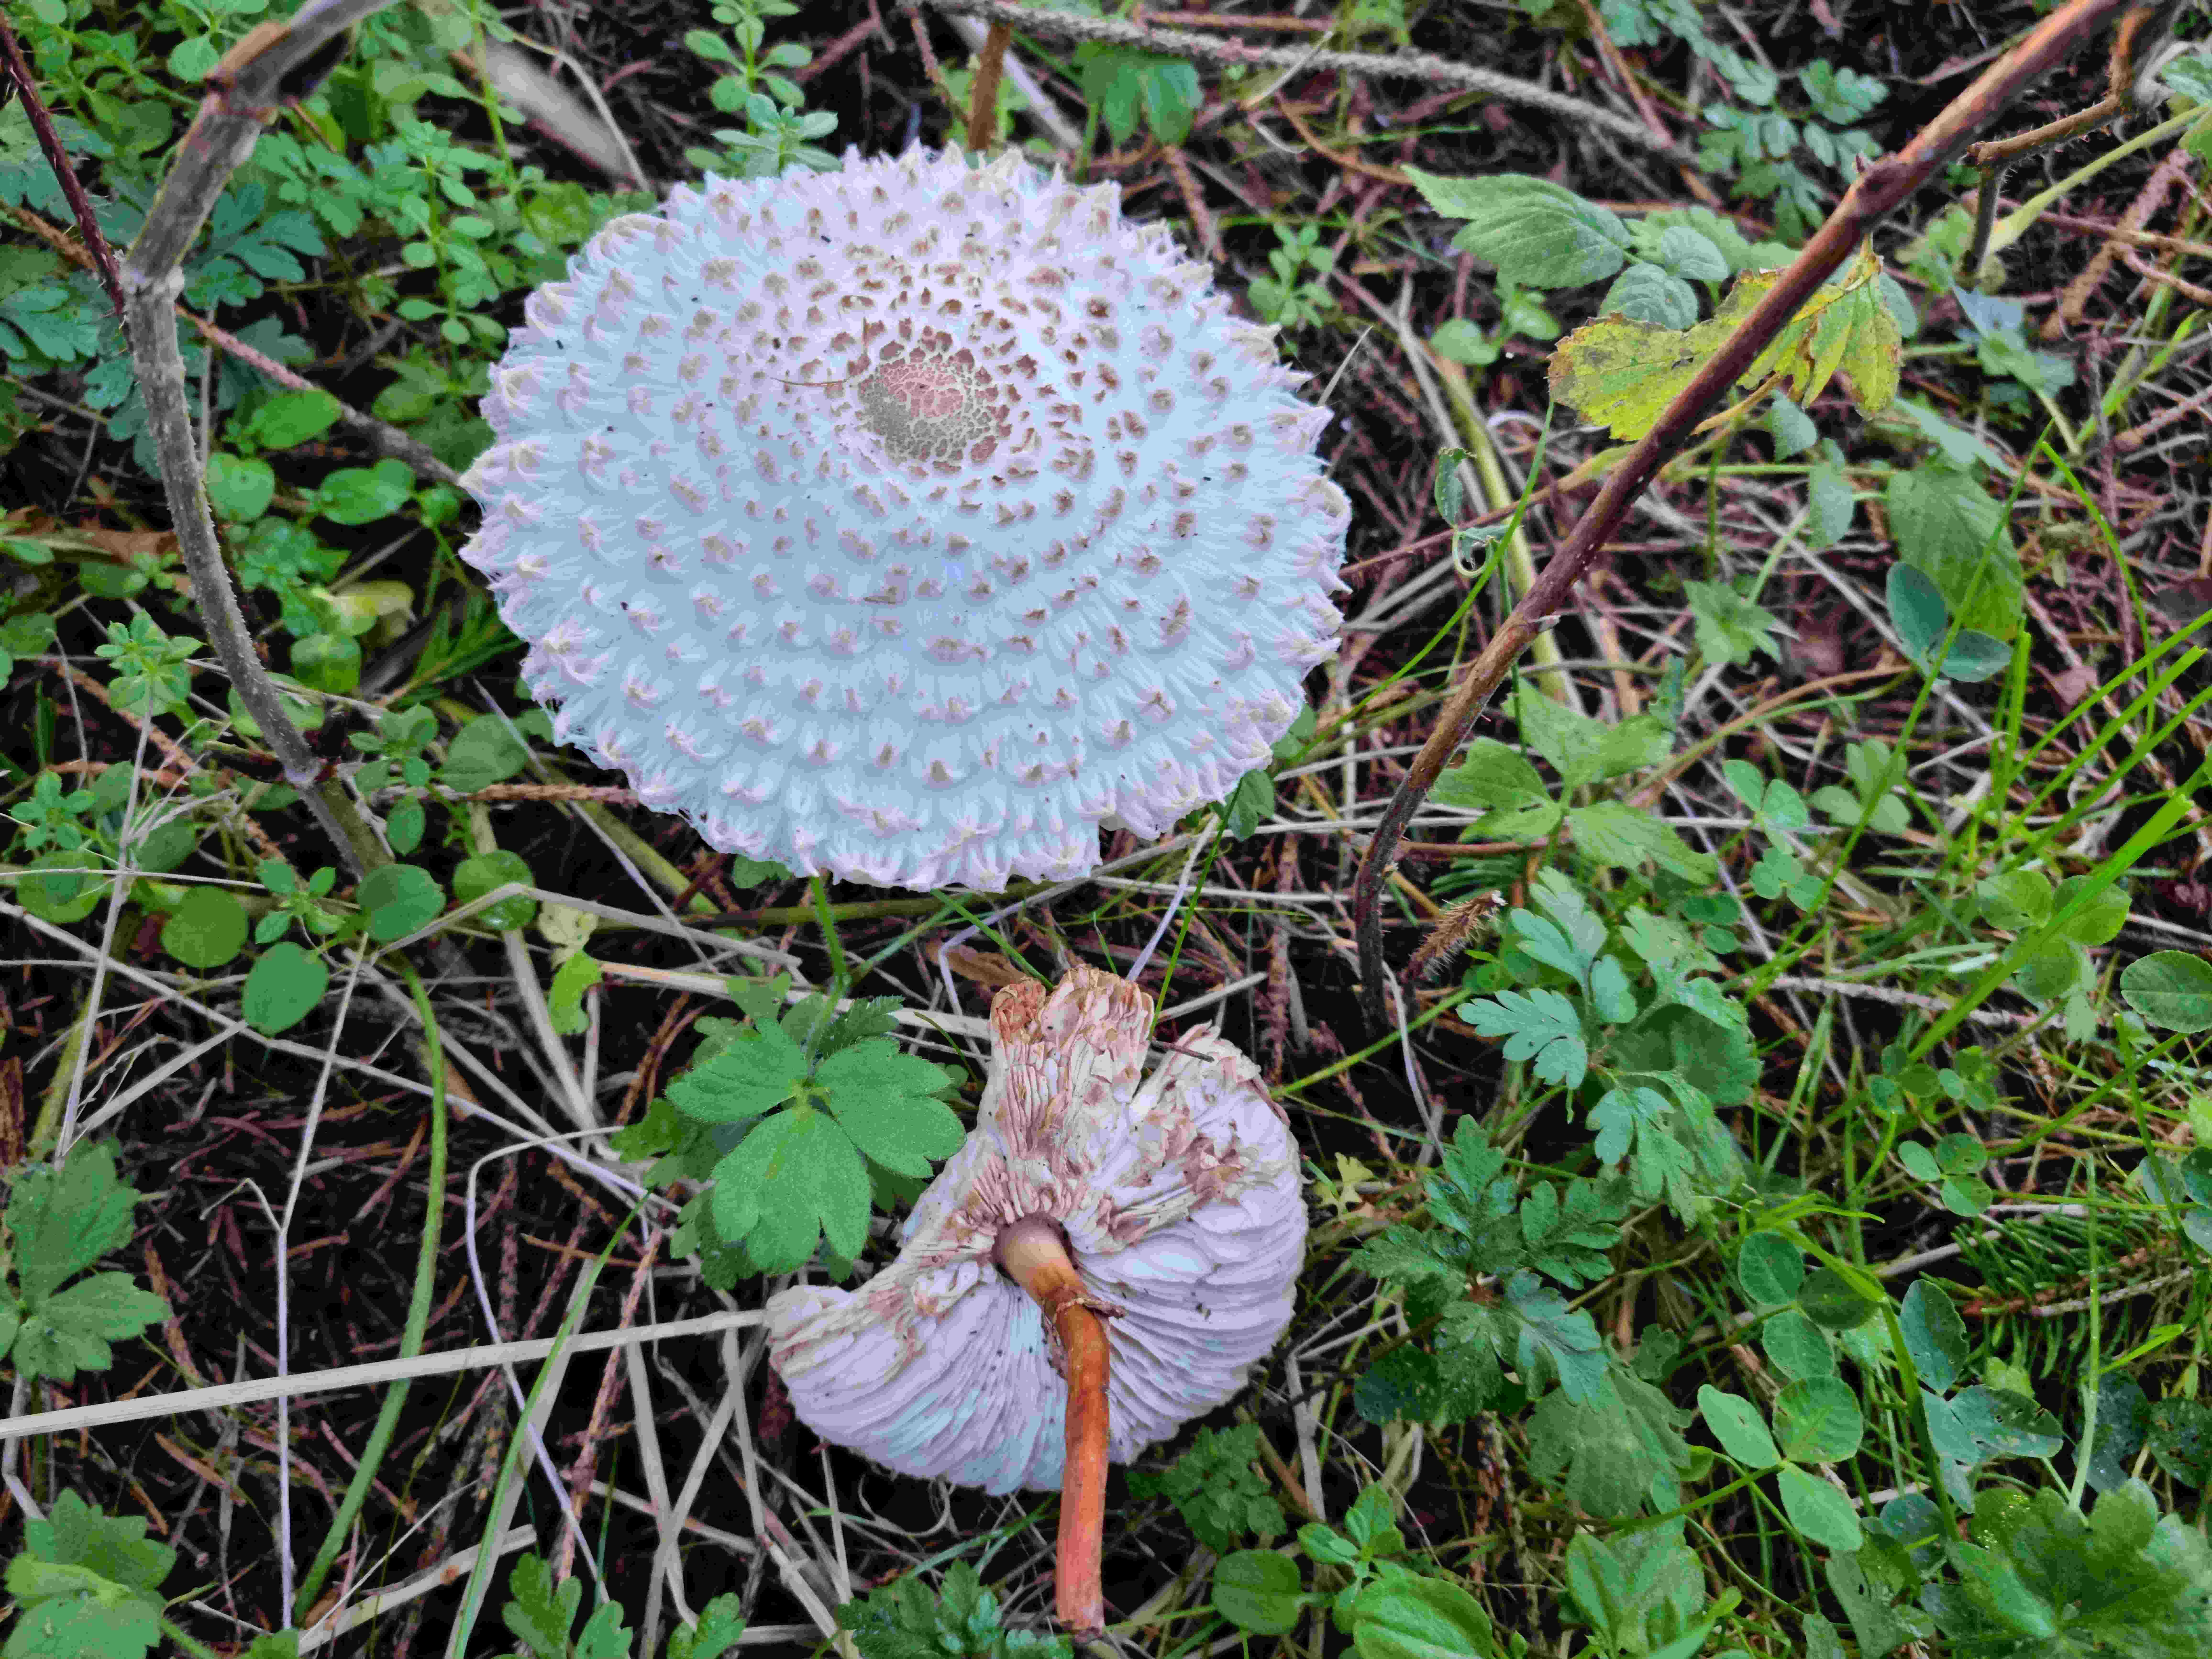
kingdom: Fungi
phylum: Basidiomycota
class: Agaricomycetes
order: Agaricales
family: Agaricaceae
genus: Leucoagaricus
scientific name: Leucoagaricus nympharum
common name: gran-silkehat
